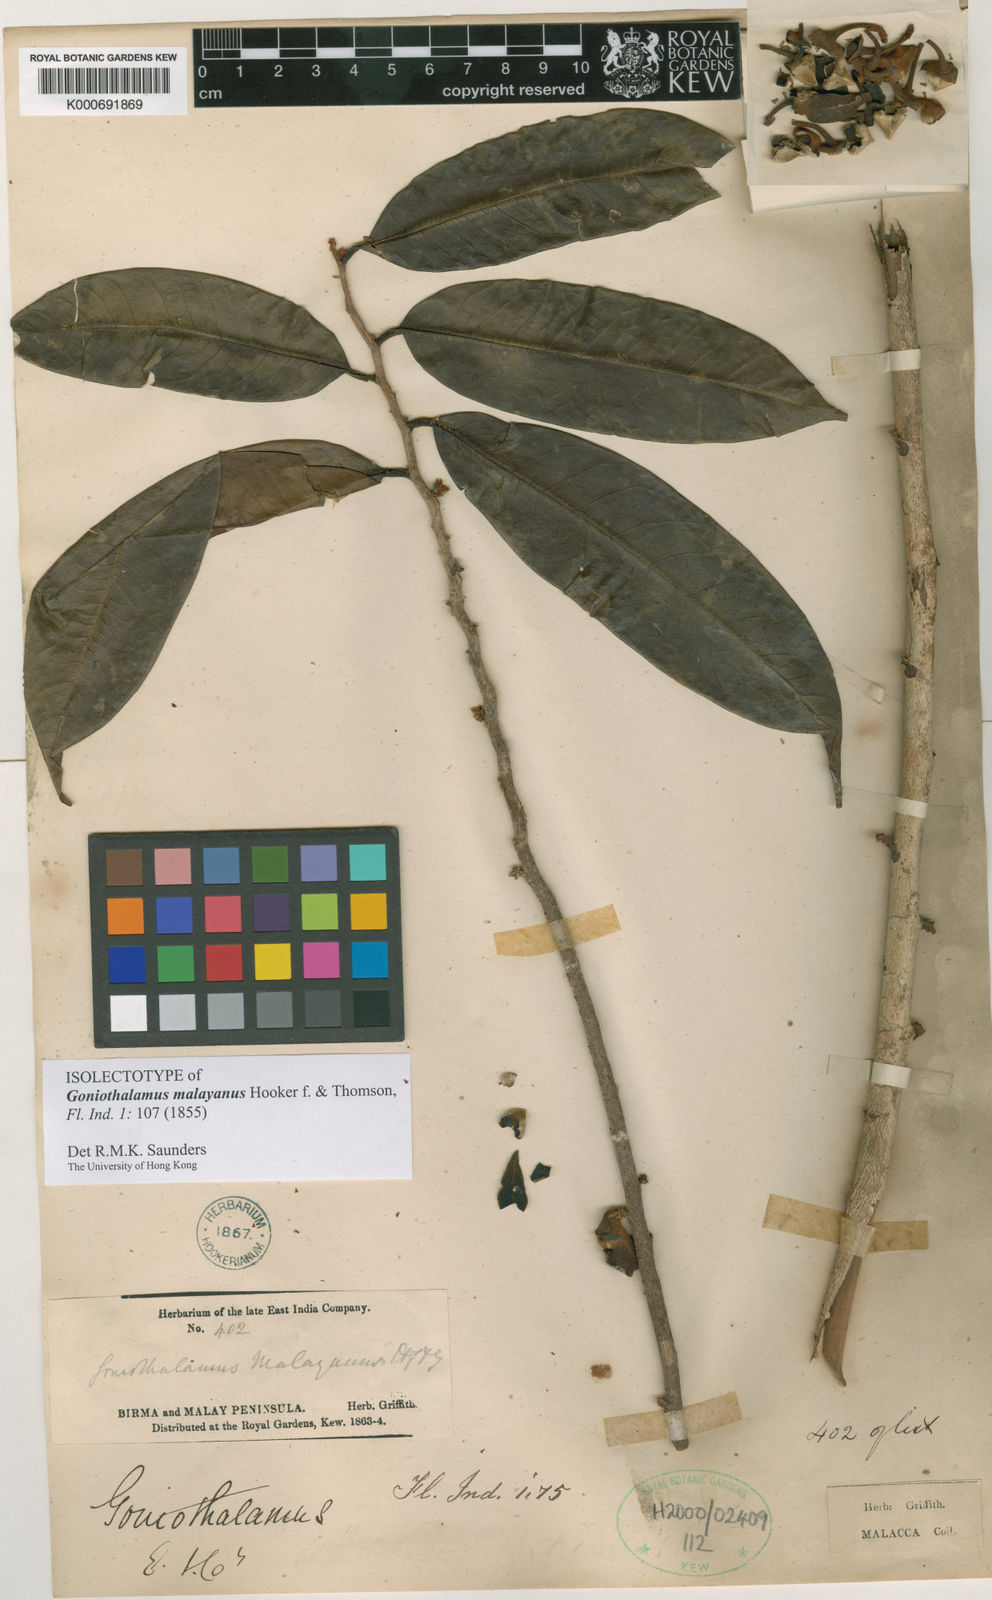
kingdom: Plantae
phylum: Tracheophyta
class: Magnoliopsida
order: Magnoliales
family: Annonaceae
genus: Goniothalamus
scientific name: Goniothalamus malayanus
